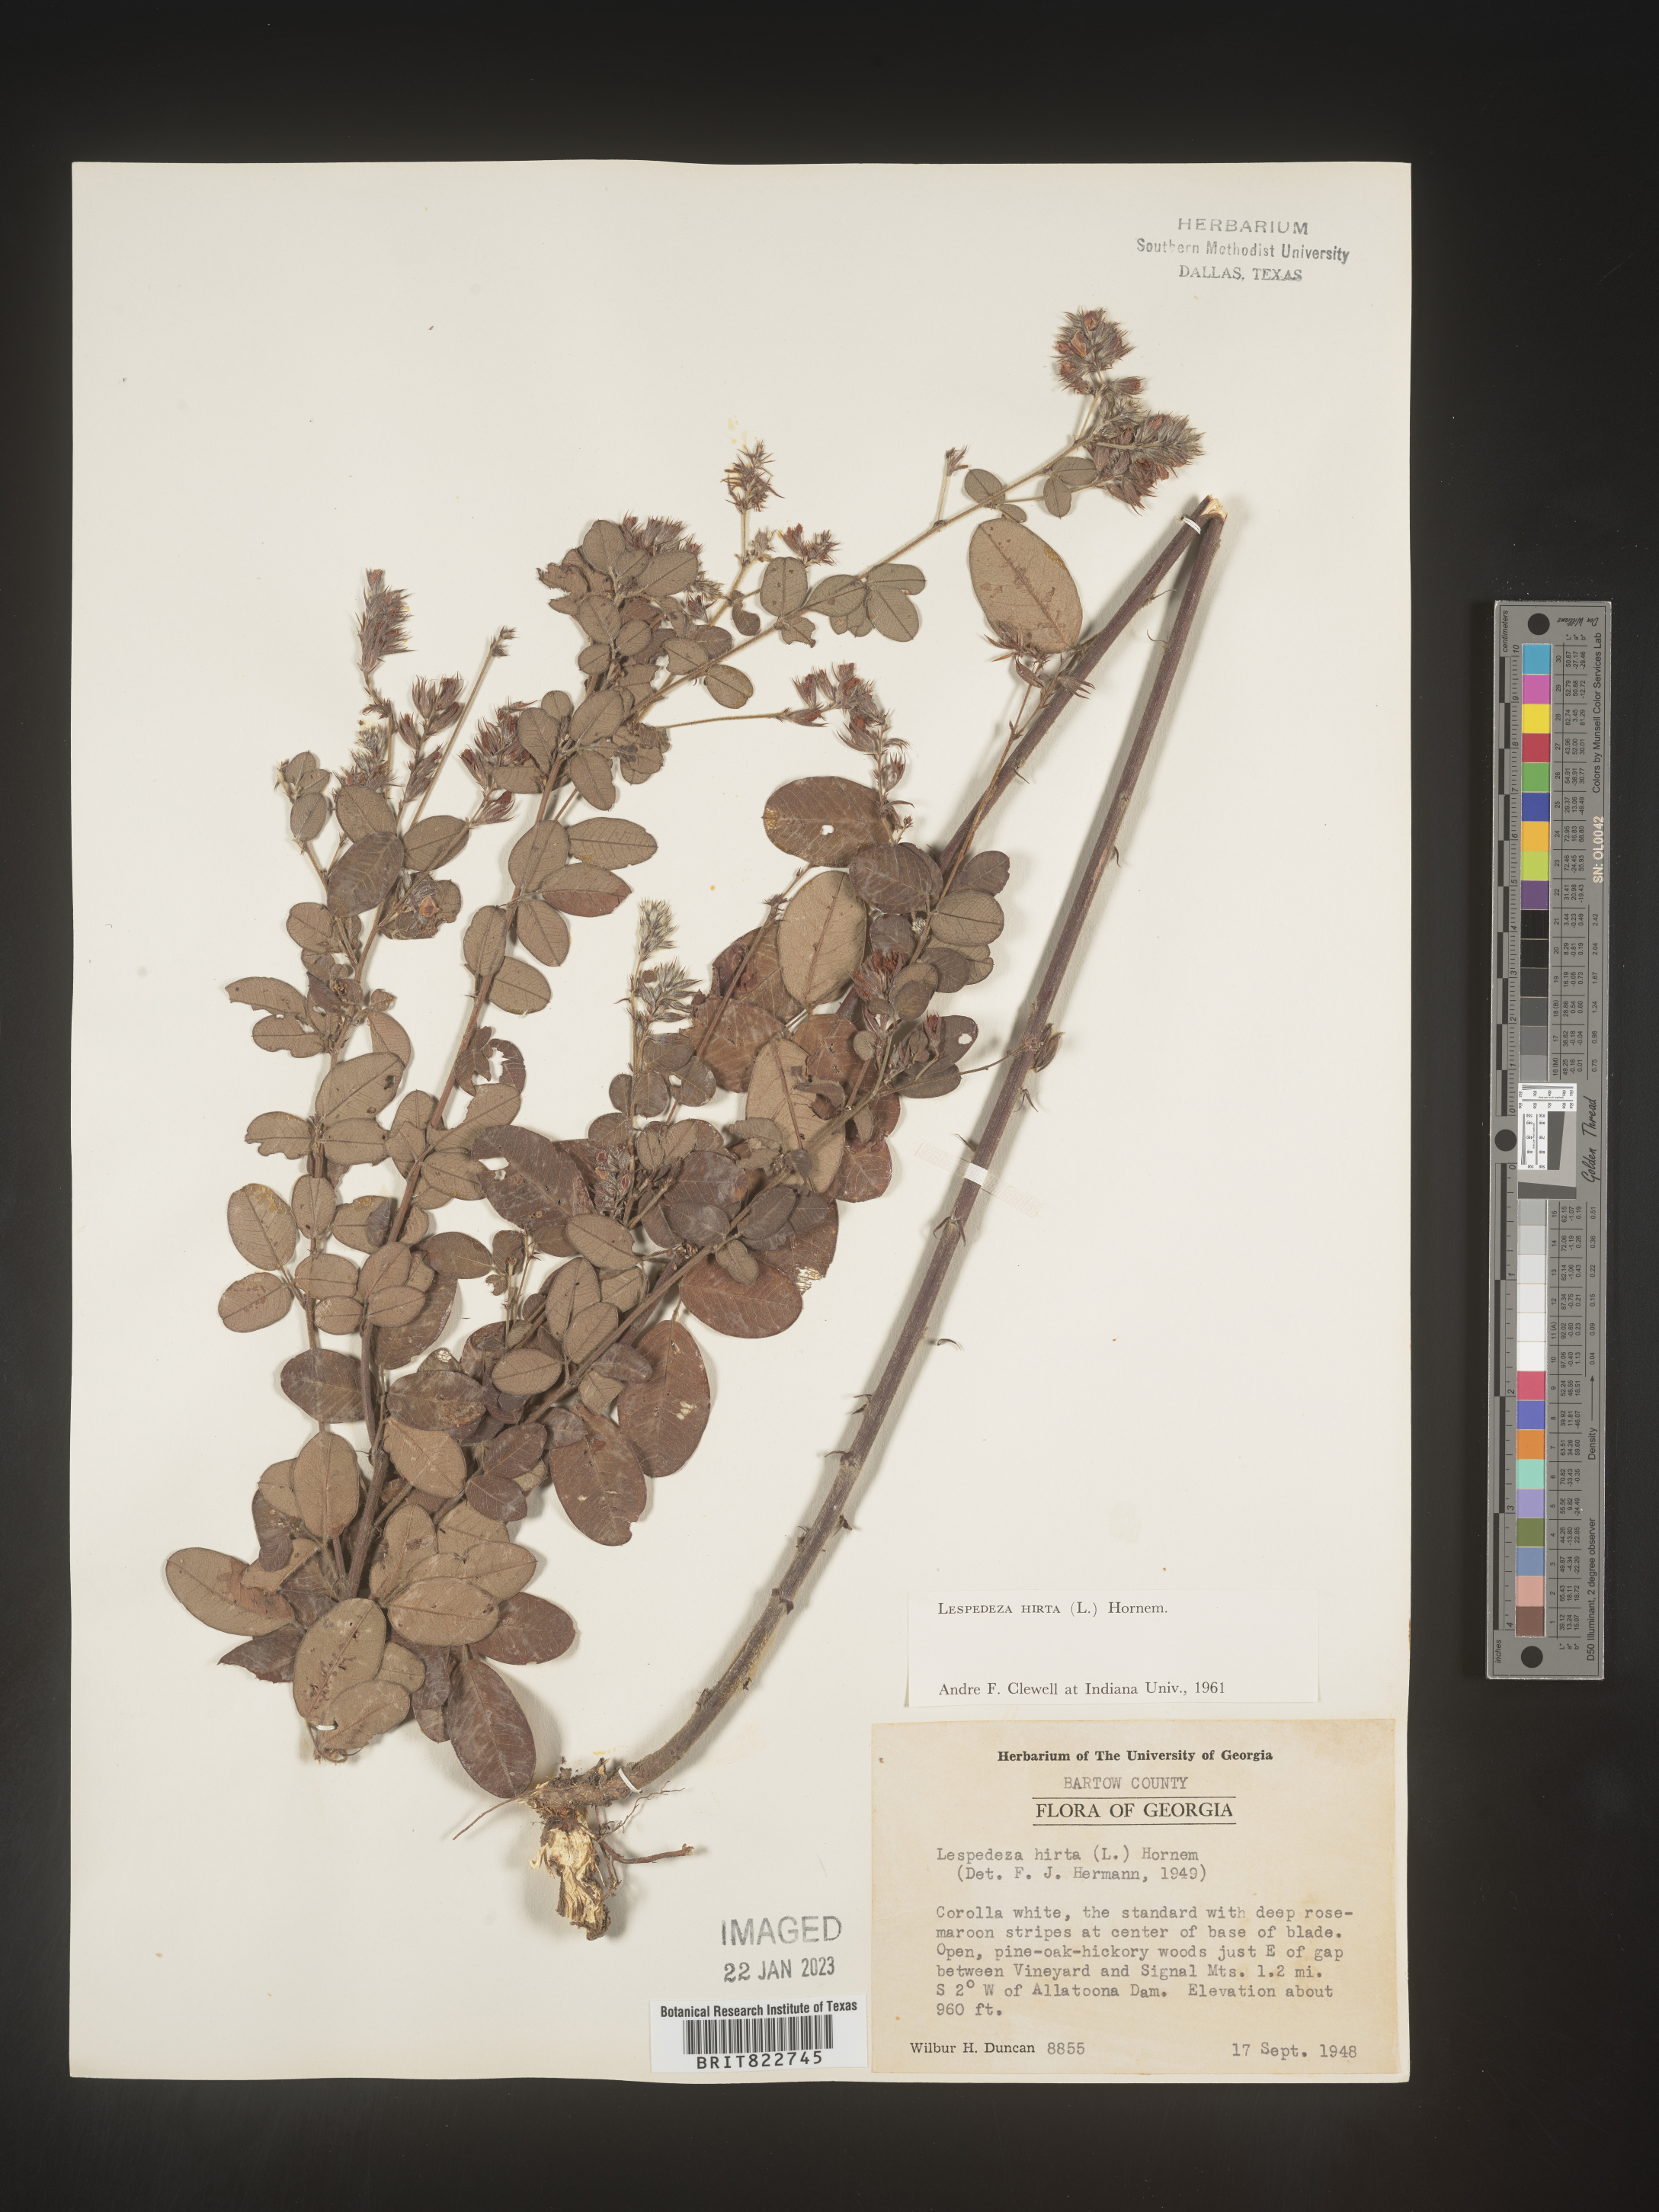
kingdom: Plantae
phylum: Tracheophyta
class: Magnoliopsida
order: Fabales
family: Fabaceae
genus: Lespedeza
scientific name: Lespedeza hirta
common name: Hairy lespedeza
